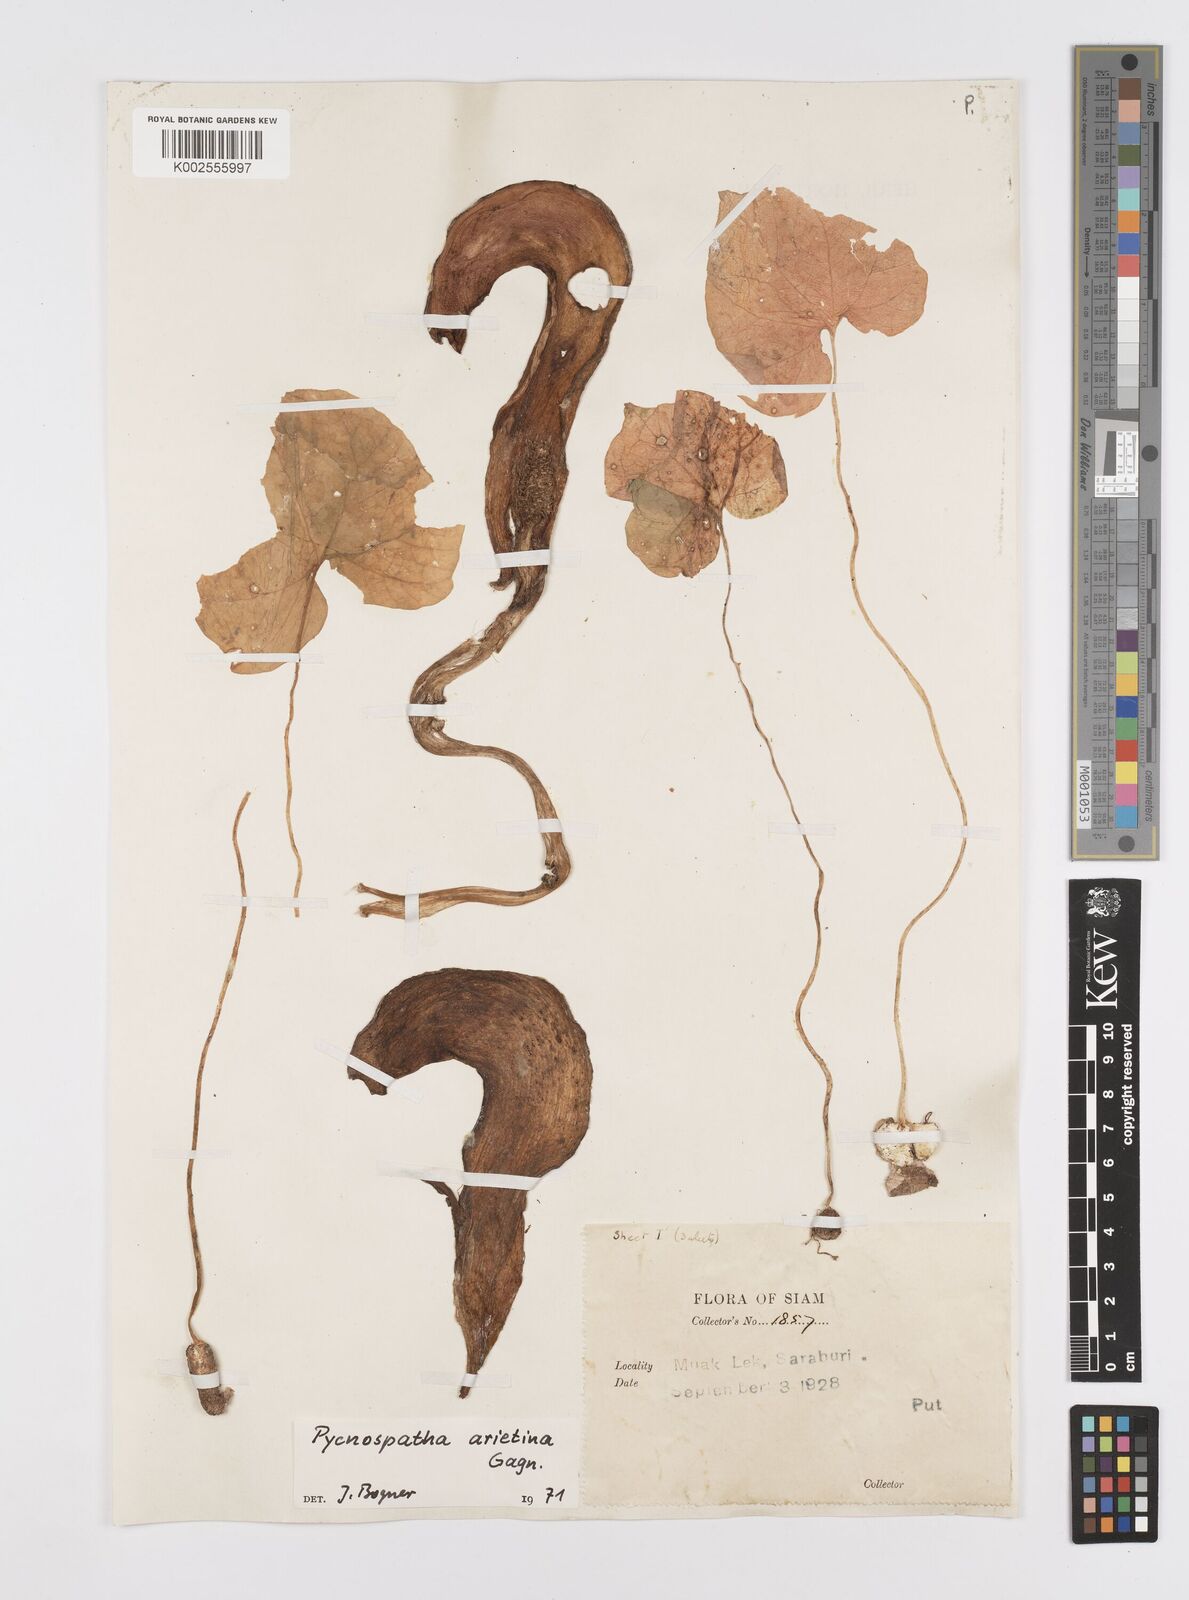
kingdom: Plantae
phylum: Tracheophyta
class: Liliopsida
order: Alismatales
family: Araceae
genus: Pycnospatha
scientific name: Pycnospatha arietina
